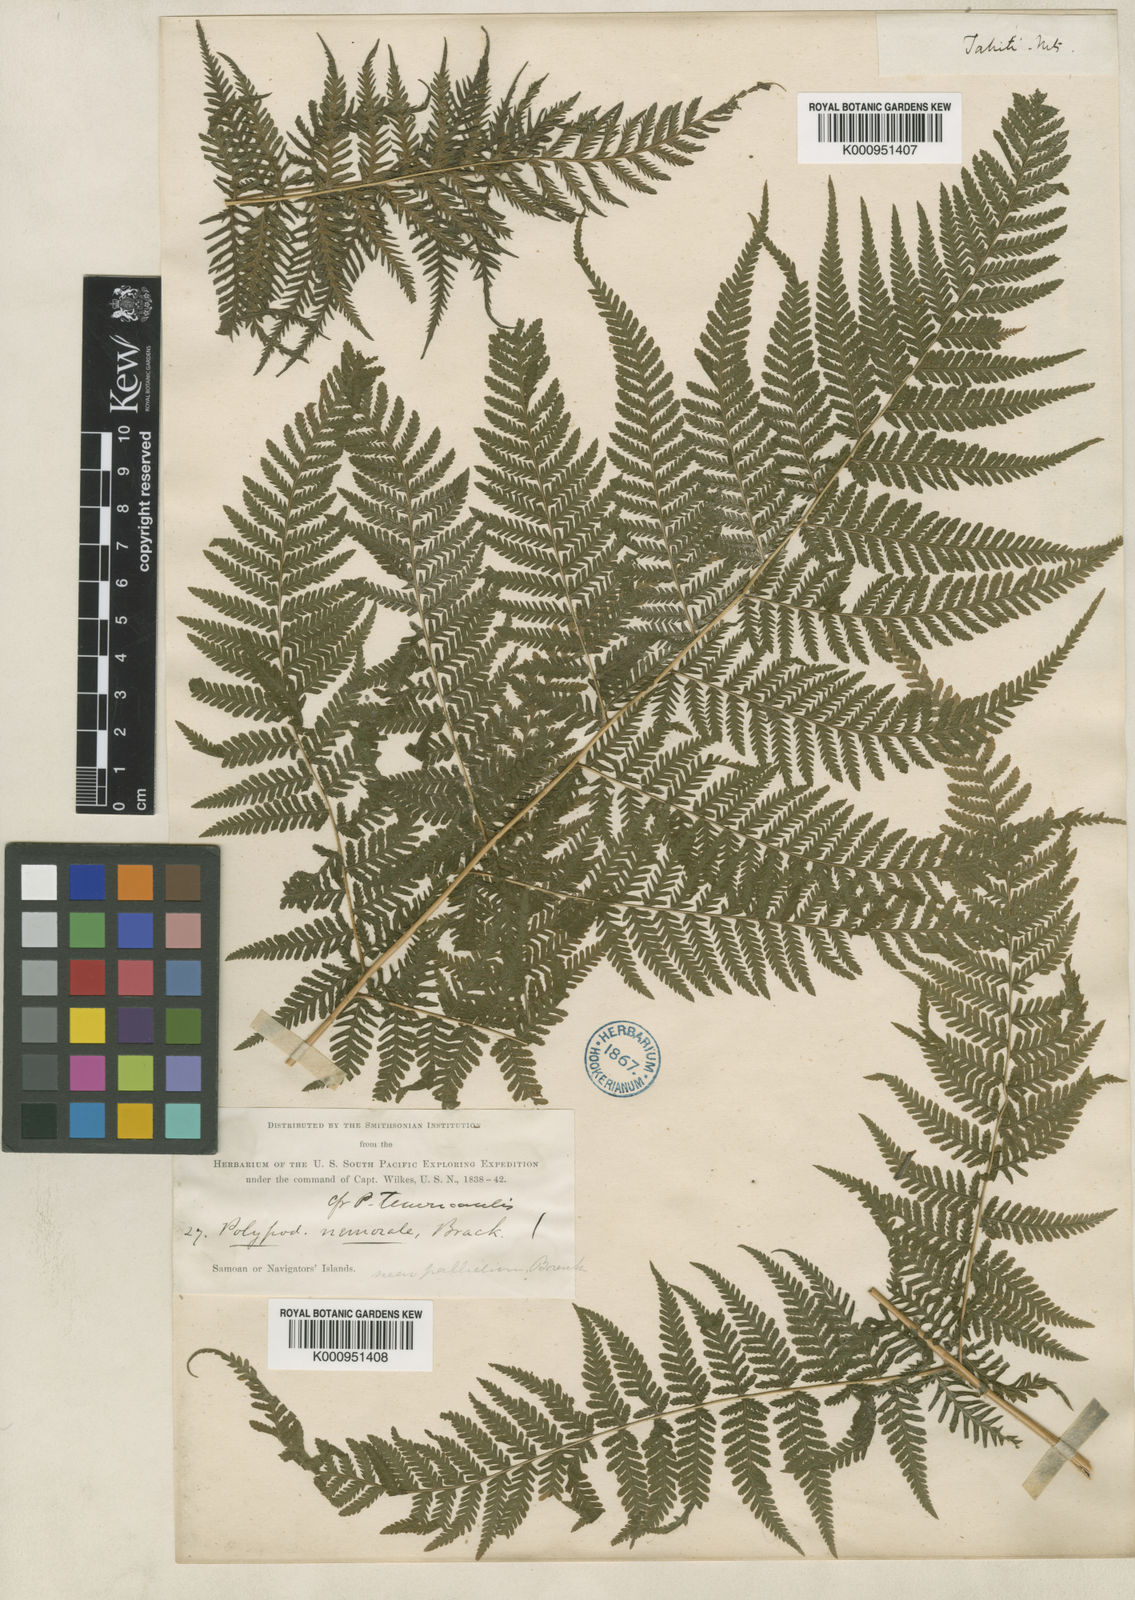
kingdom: Plantae
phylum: Tracheophyta
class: Polypodiopsida
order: Polypodiales
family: Thelypteridaceae
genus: Macrothelypteris
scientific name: Macrothelypteris torresiana
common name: Swordfern
